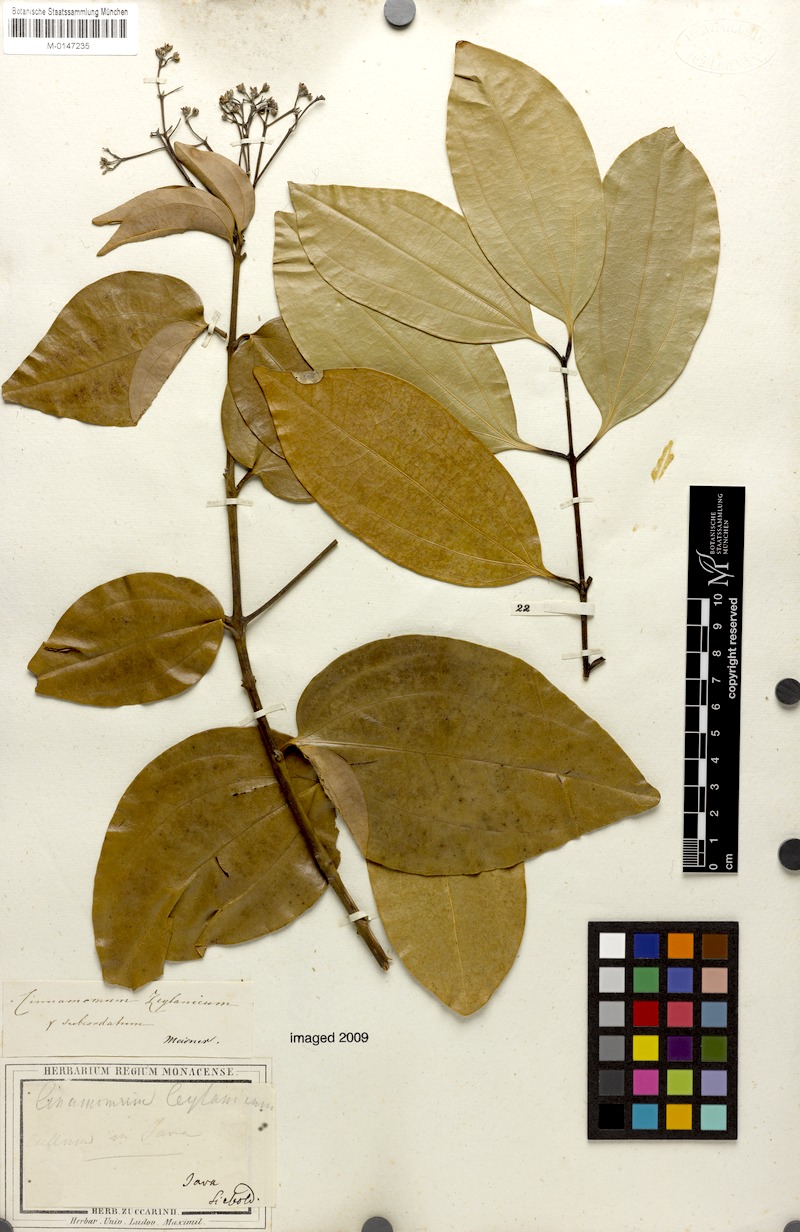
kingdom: Plantae
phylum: Tracheophyta
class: Magnoliopsida
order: Laurales
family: Lauraceae
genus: Cinnamomum
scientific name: Cinnamomum verum
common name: Cinnamon
